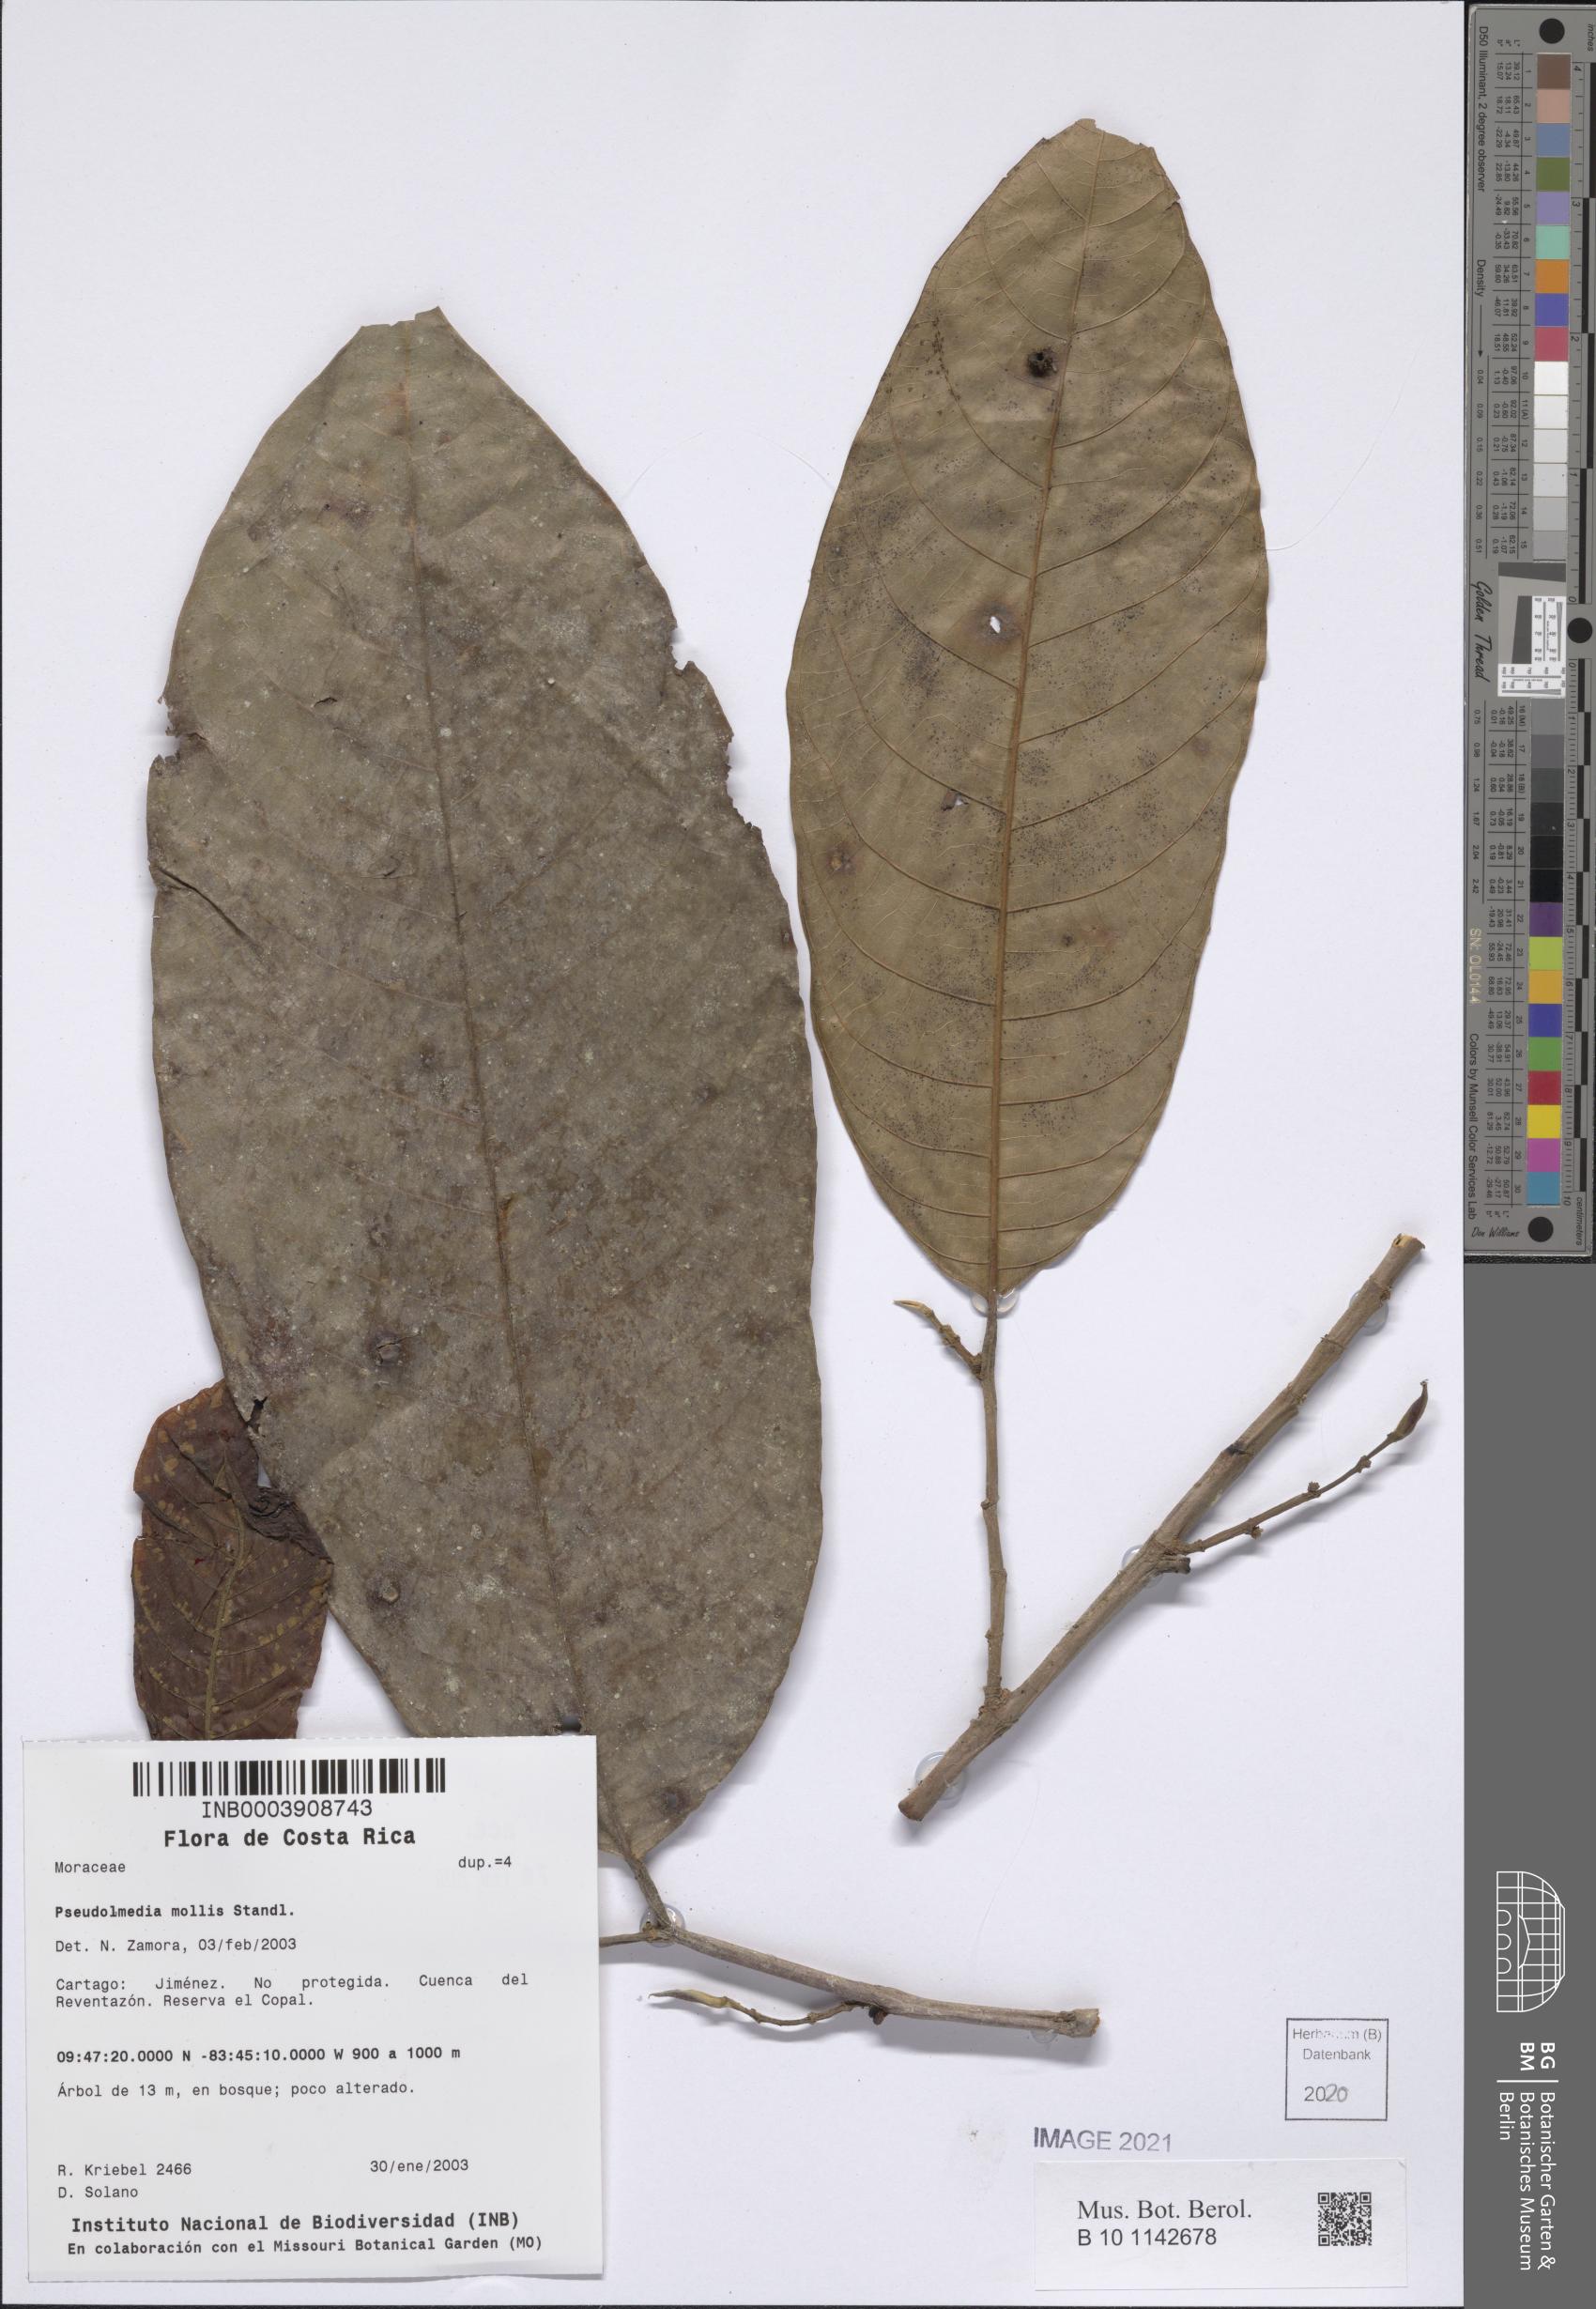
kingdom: Plantae
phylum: Tracheophyta
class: Magnoliopsida
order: Rosales
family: Moraceae
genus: Pseudolmedia
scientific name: Pseudolmedia glabrata
